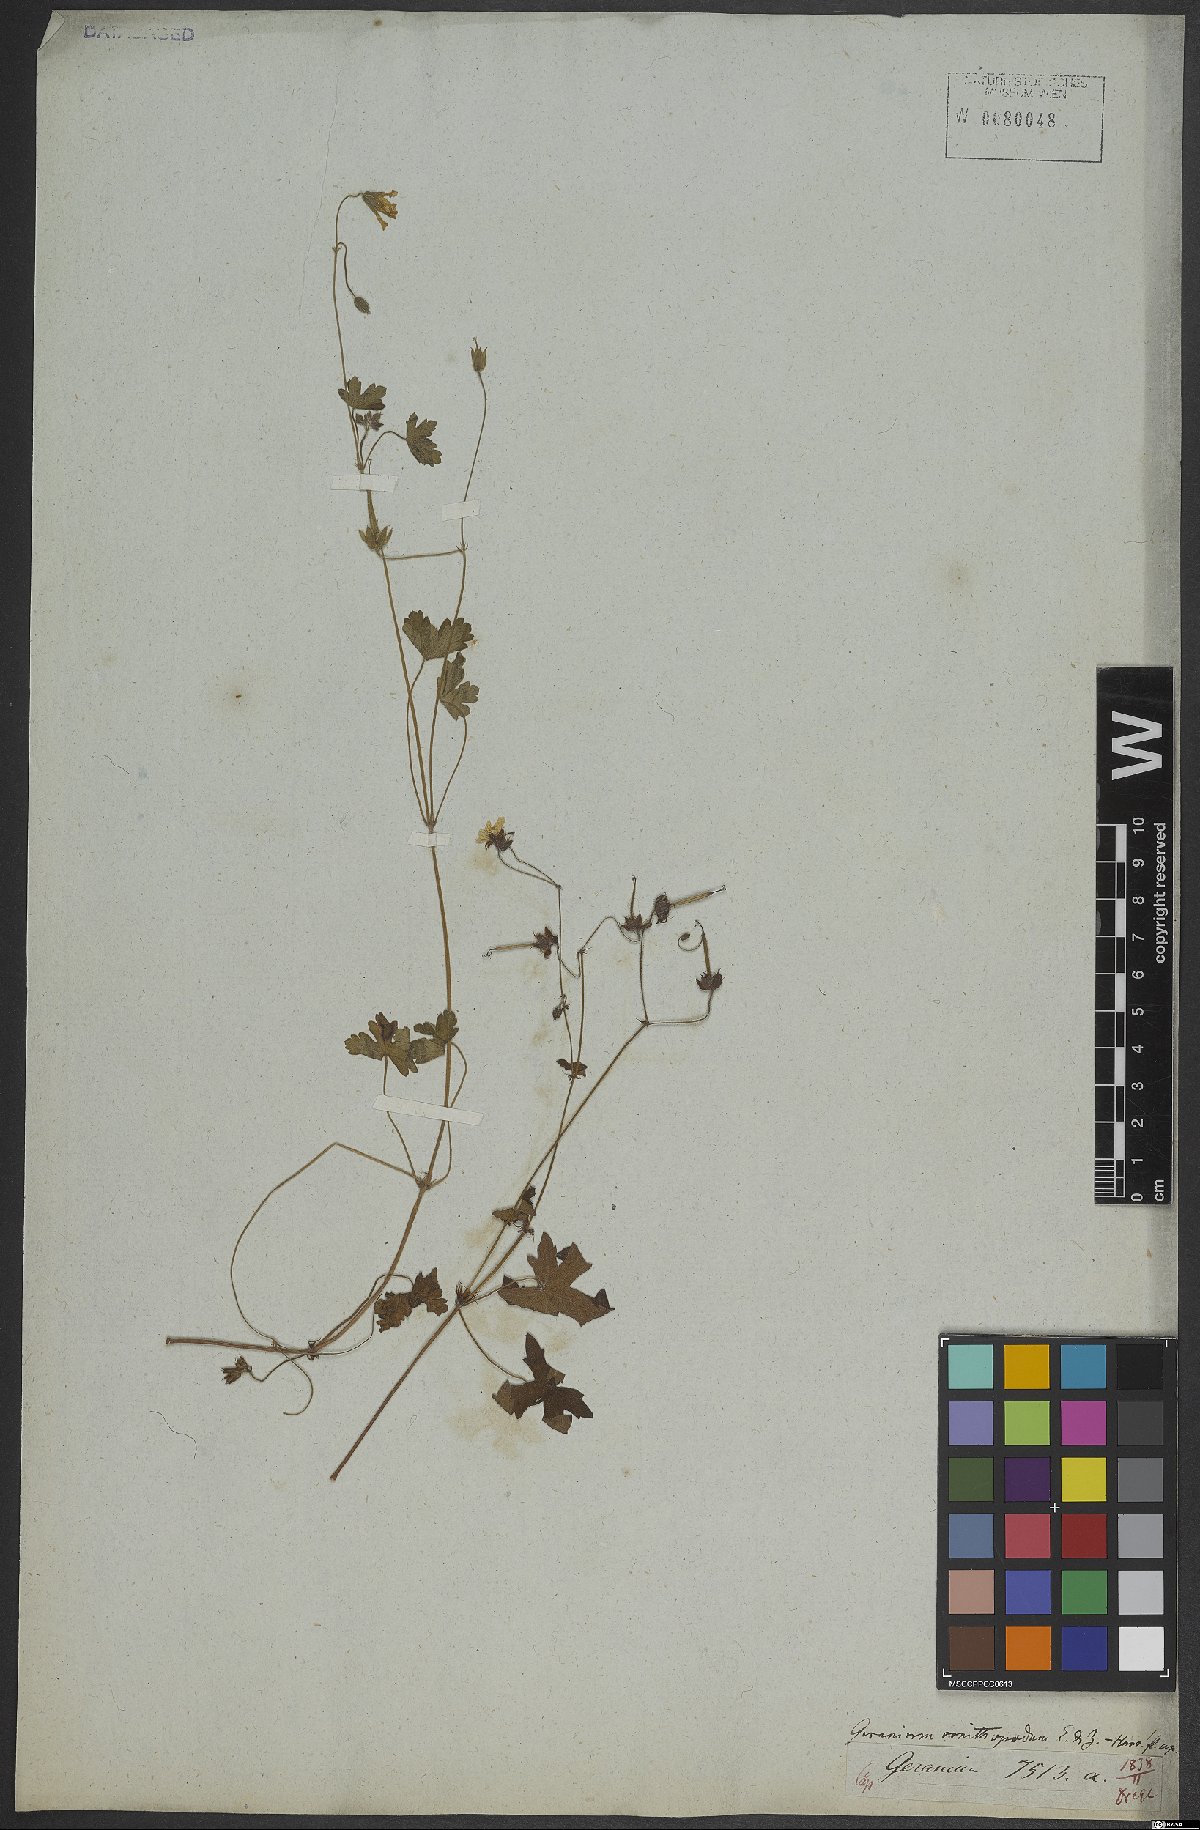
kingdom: Plantae
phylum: Tracheophyta
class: Magnoliopsida
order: Geraniales
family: Geraniaceae
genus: Geranium
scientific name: Geranium
